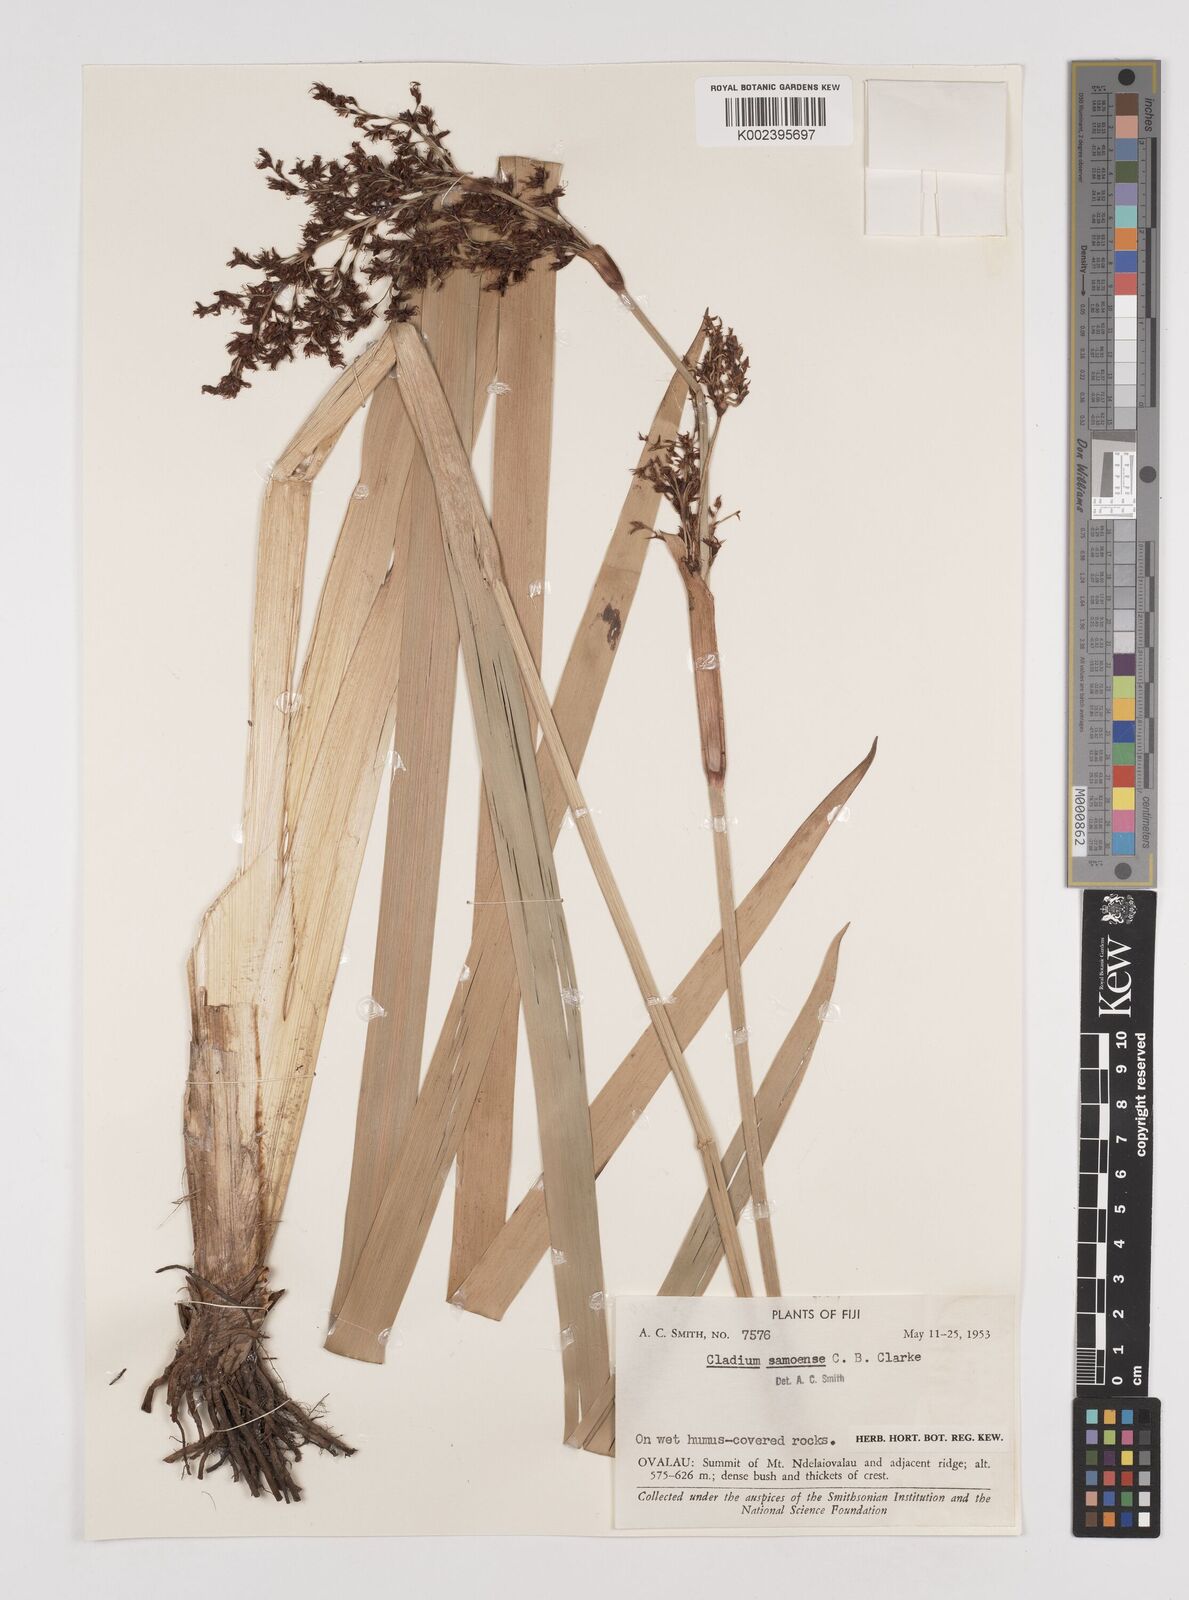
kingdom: Plantae
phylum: Tracheophyta
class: Liliopsida
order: Poales
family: Cyperaceae
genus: Machaerina
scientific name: Machaerina falcata
